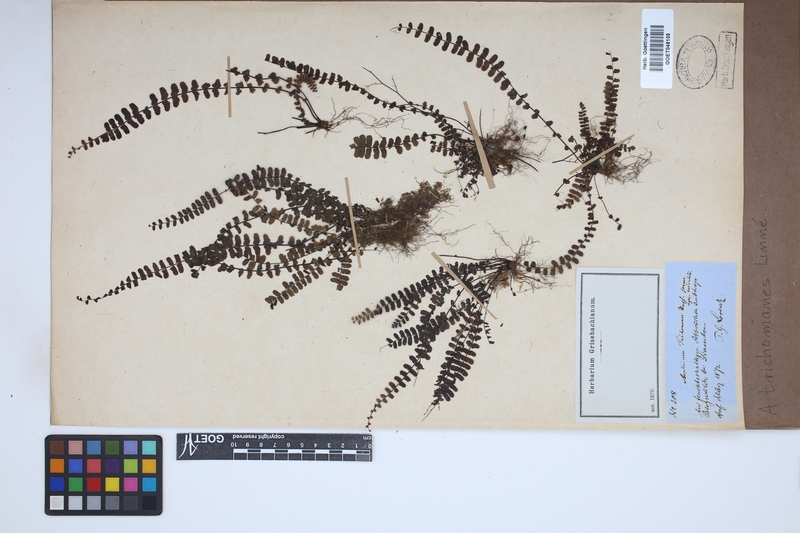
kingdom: Plantae
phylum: Tracheophyta
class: Polypodiopsida
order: Polypodiales
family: Aspleniaceae
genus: Asplenium
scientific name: Asplenium trichomanes
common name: Maidenhair spleenwort
